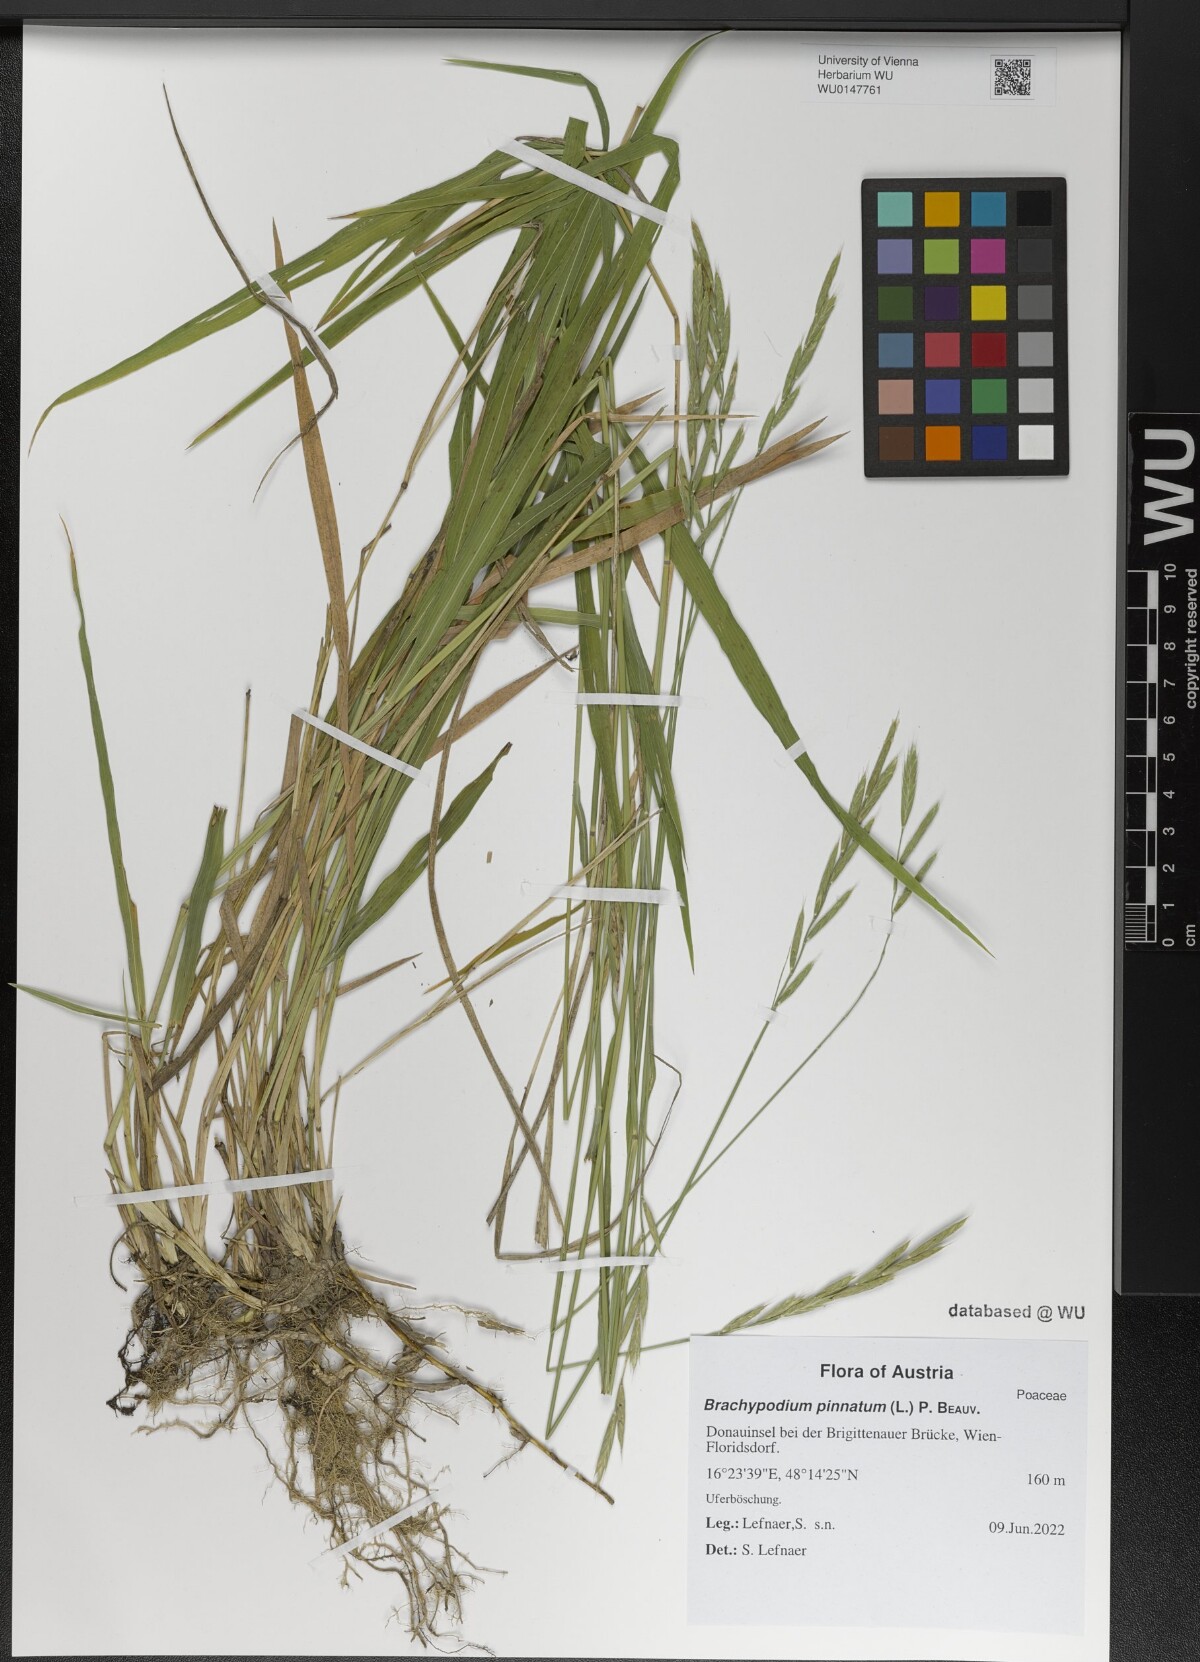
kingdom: Plantae
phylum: Tracheophyta
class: Liliopsida
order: Poales
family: Poaceae
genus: Brachypodium
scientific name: Brachypodium pinnatum
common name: Tor grass
